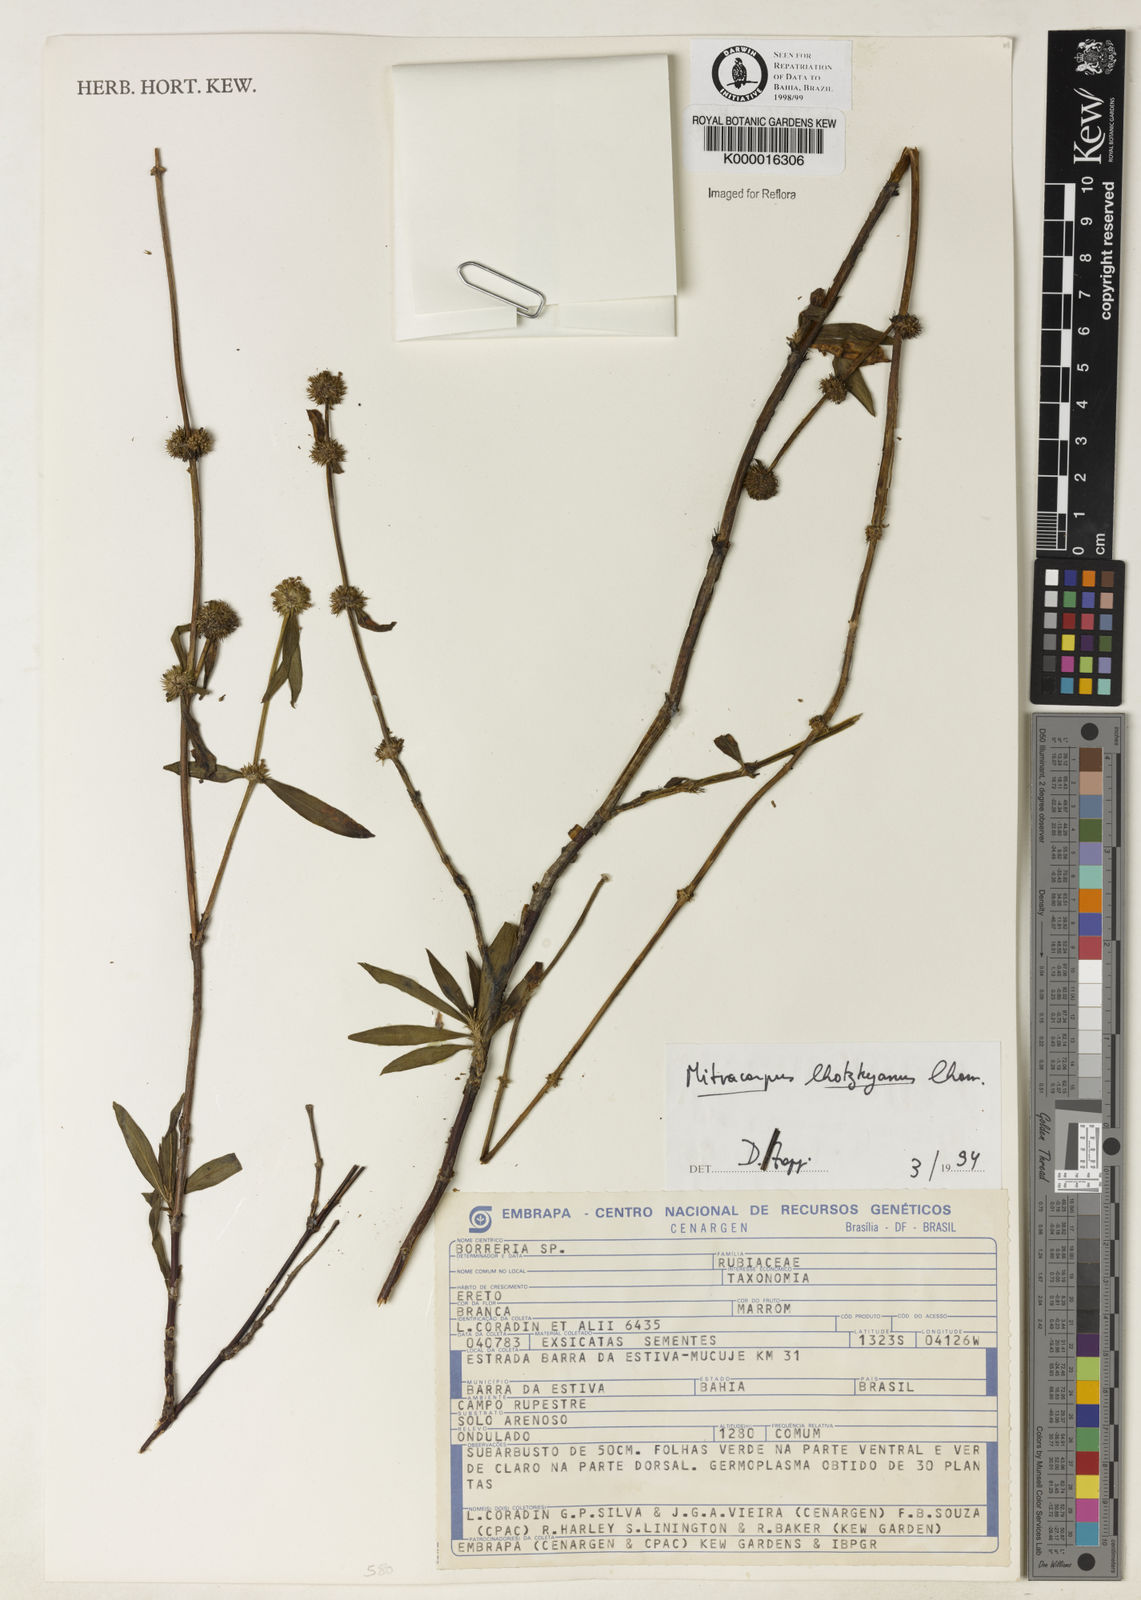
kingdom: Plantae
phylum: Tracheophyta
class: Magnoliopsida
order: Gentianales
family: Rubiaceae
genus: Mitracarpus
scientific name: Mitracarpus lhotzkyanus
